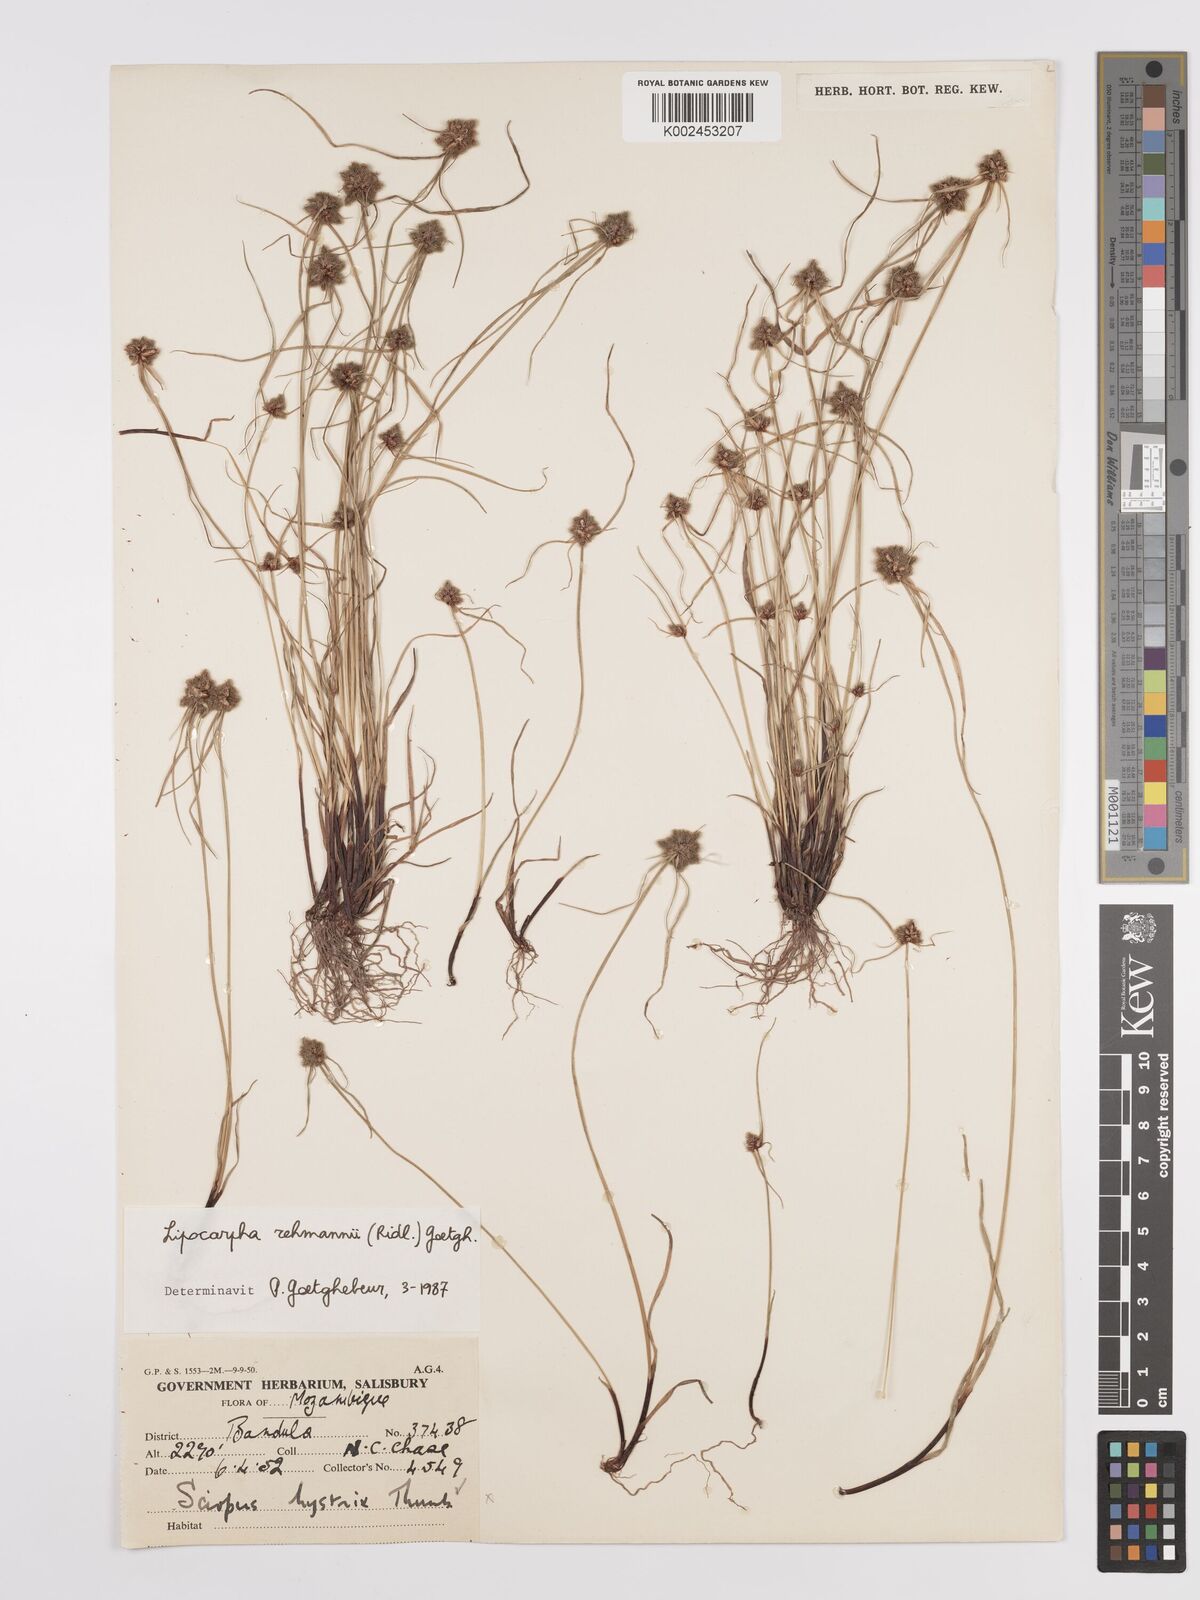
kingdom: Plantae
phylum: Tracheophyta
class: Liliopsida
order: Poales
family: Cyperaceae
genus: Cyperus
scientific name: Cyperus sanguinolentus
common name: Purpleglume flatsedge
